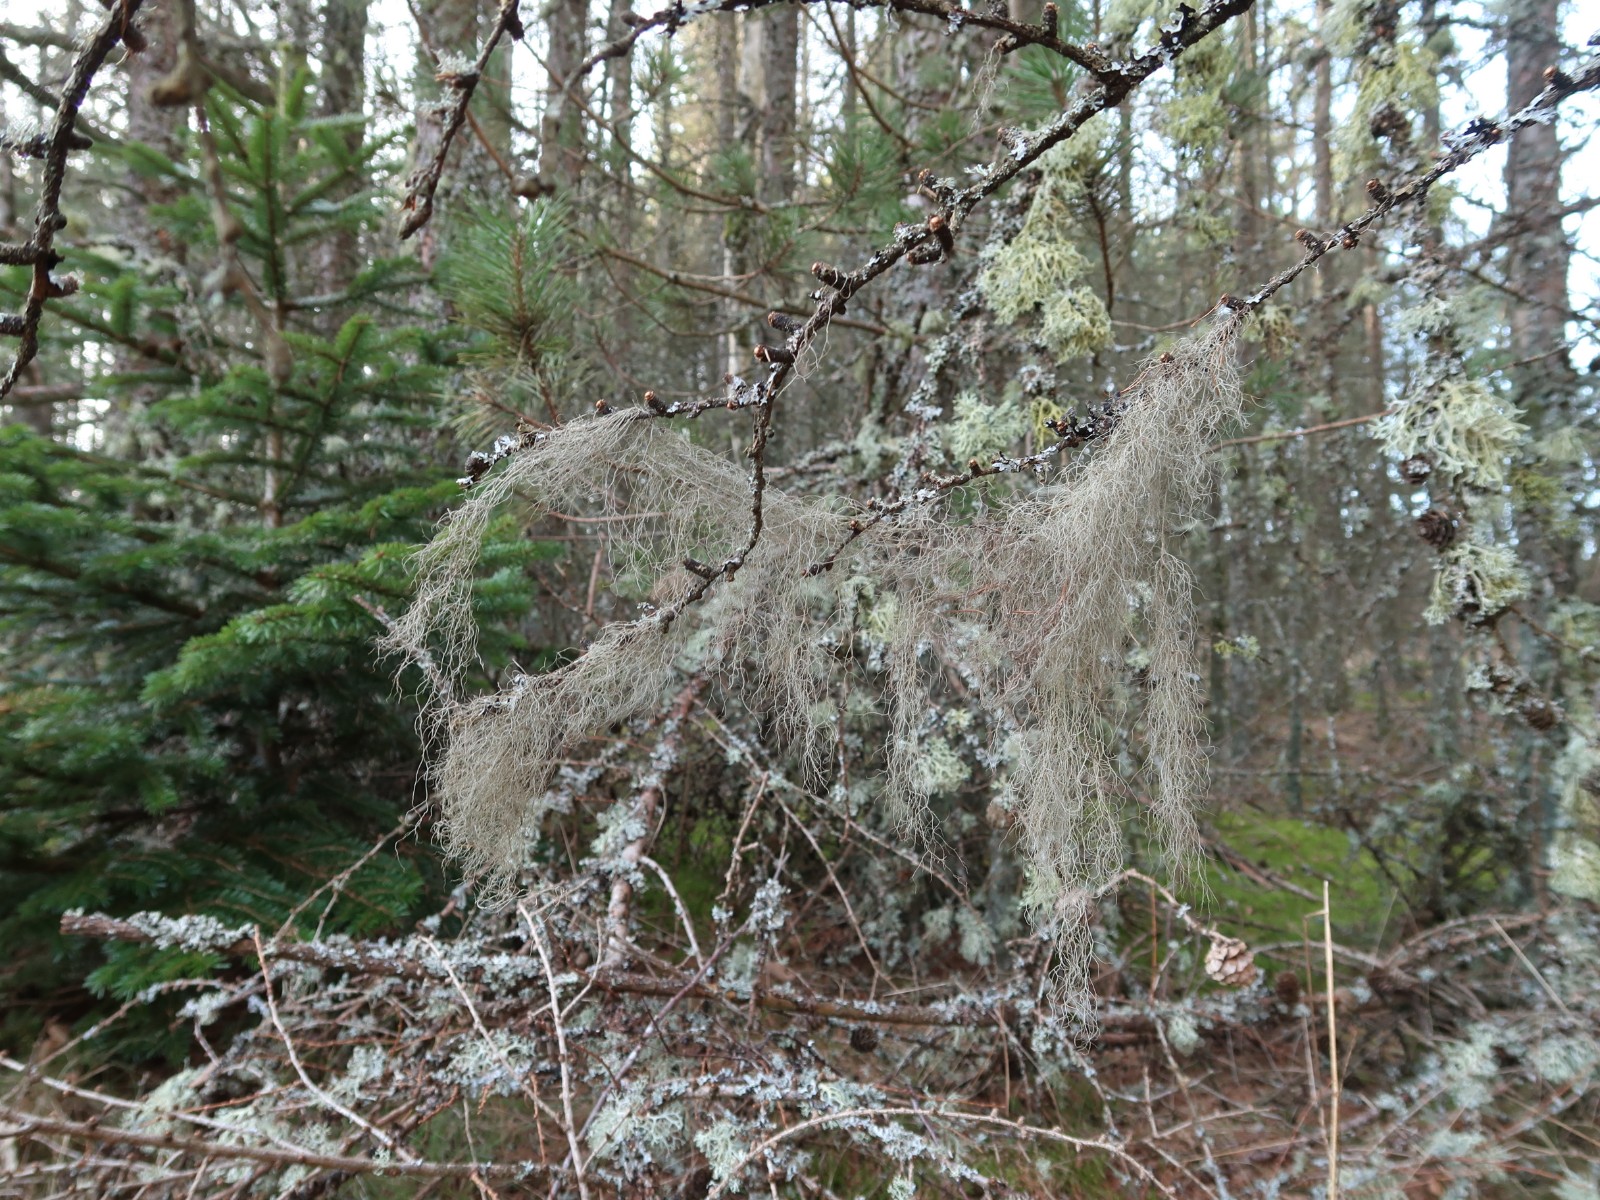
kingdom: Fungi
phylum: Ascomycota
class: Lecanoromycetes
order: Lecanorales
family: Parmeliaceae
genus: Bryoria
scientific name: Bryoria fuscescens
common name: almindelig mankelav
